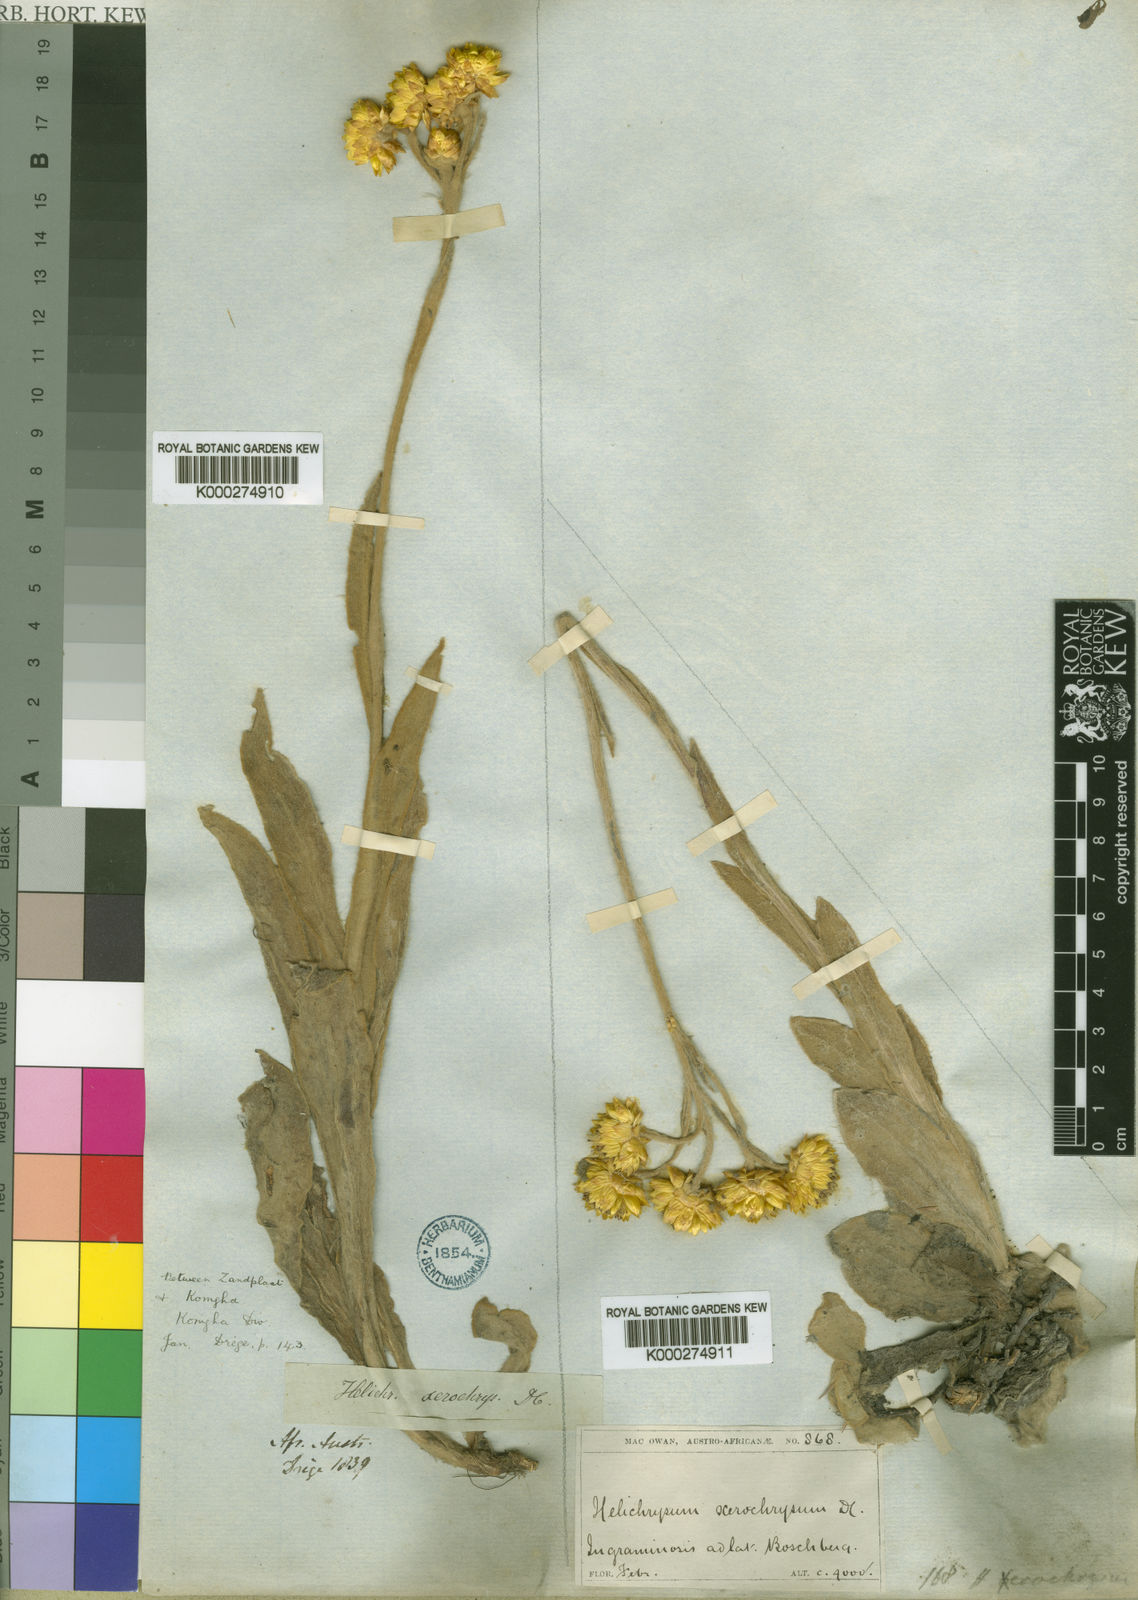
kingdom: Plantae
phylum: Tracheophyta
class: Magnoliopsida
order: Asterales
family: Asteraceae
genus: Helichrysum
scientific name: Helichrysum xerochrysum
